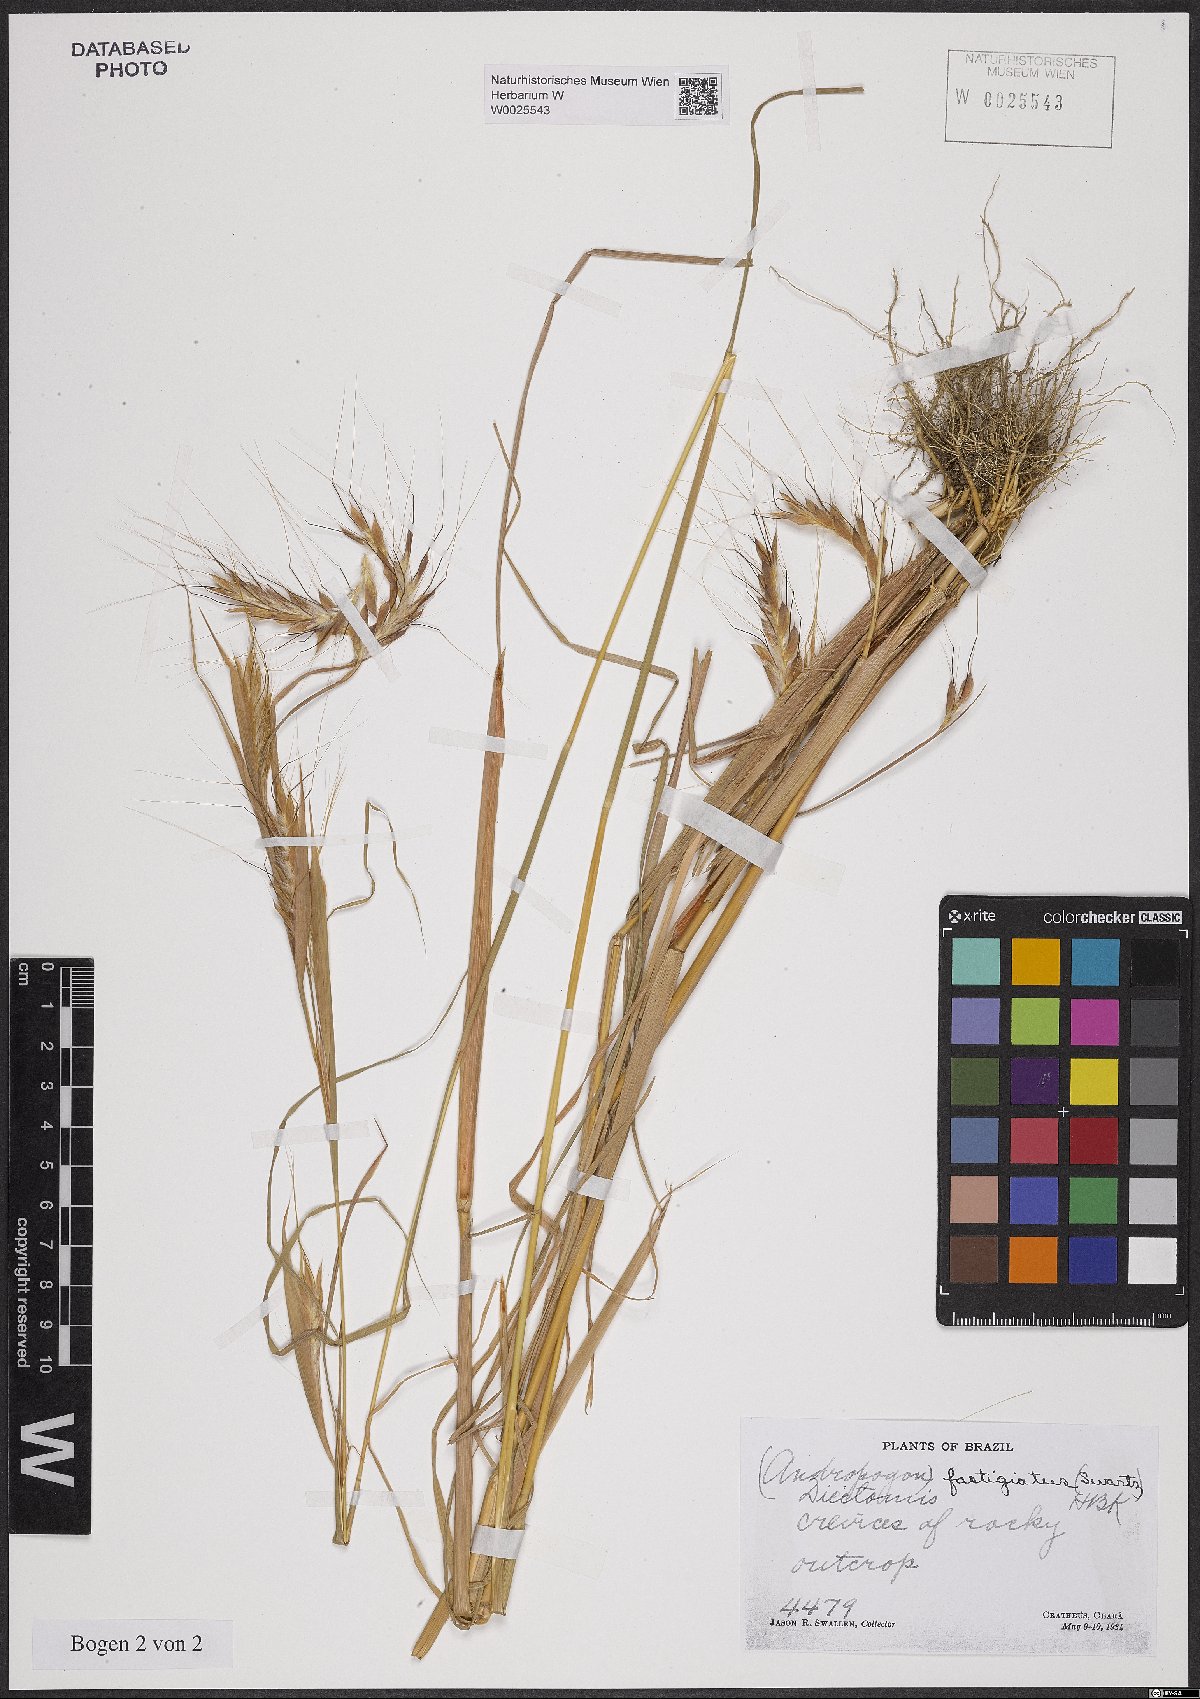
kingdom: Plantae
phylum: Tracheophyta
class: Liliopsida
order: Poales
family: Poaceae
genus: Diectomis
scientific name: Diectomis fastigiata
